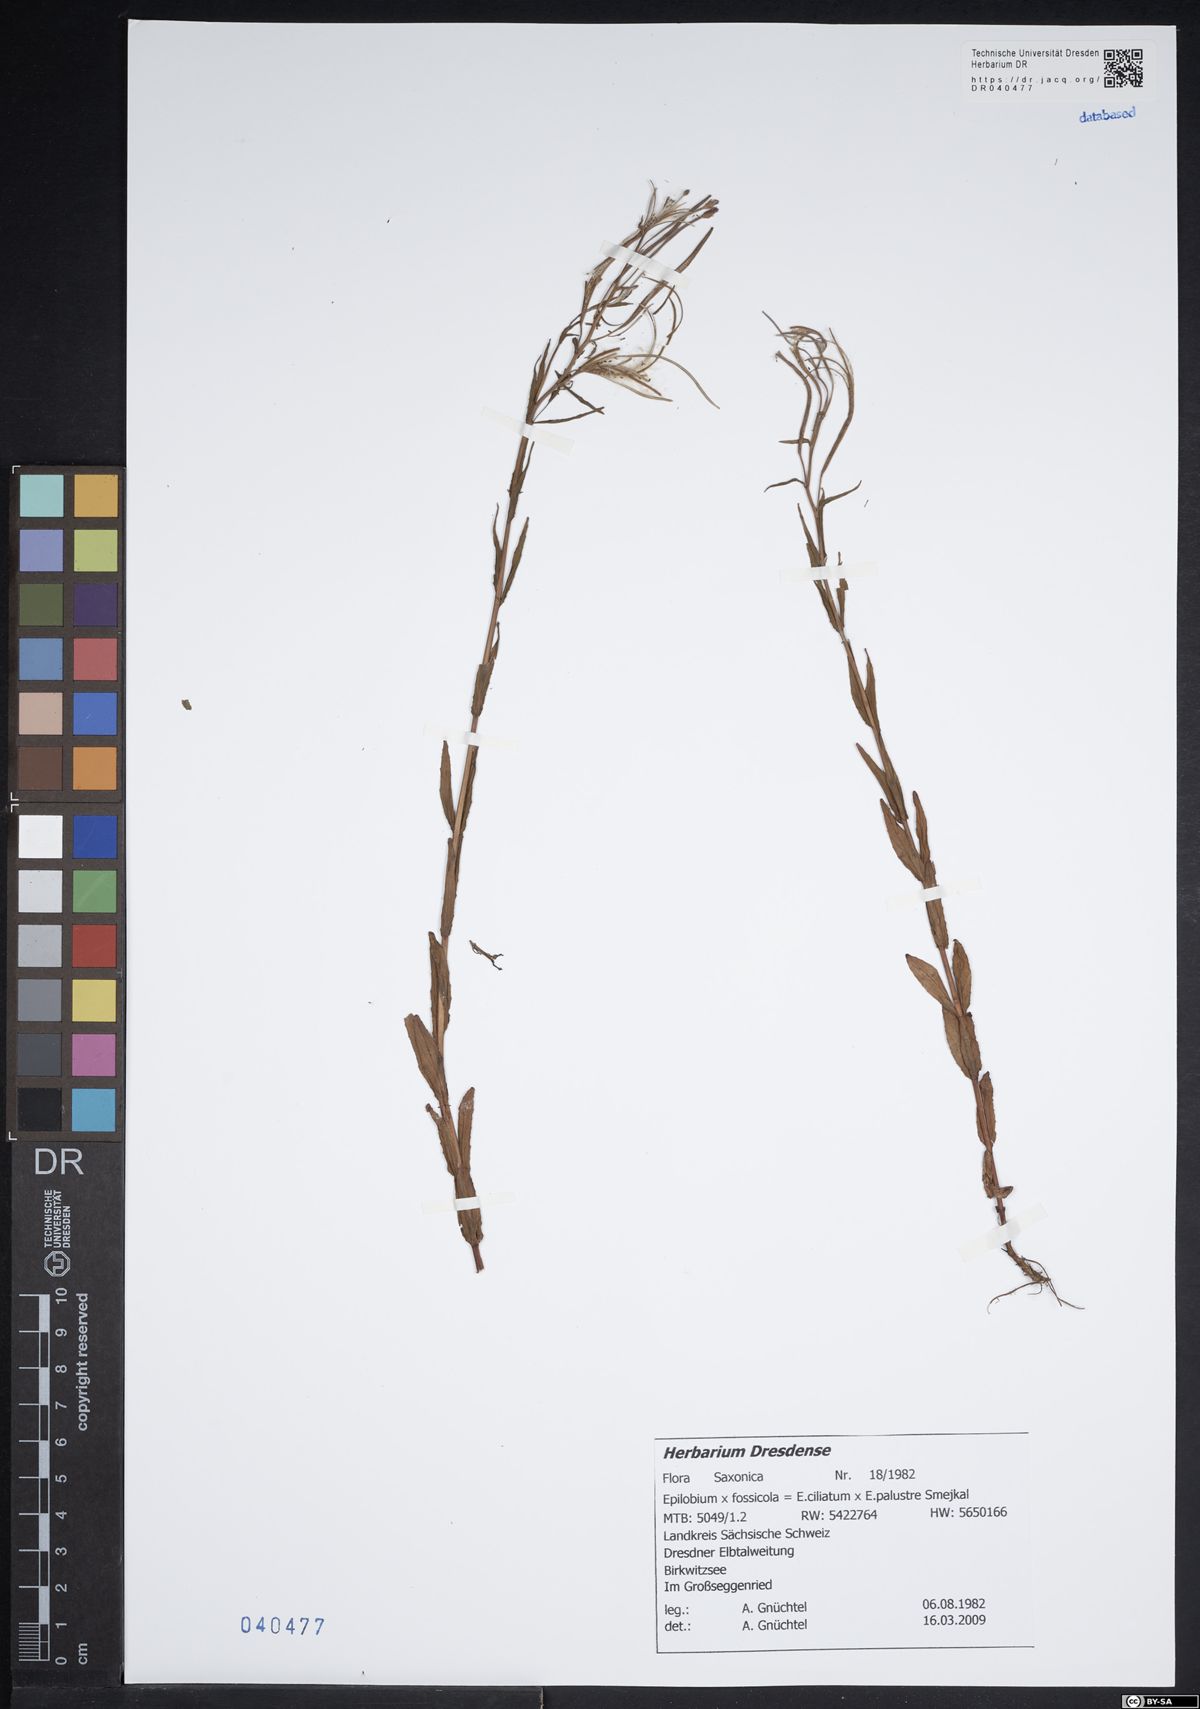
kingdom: Plantae
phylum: Tracheophyta
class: Magnoliopsida
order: Myrtales
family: Onagraceae
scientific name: Onagraceae
